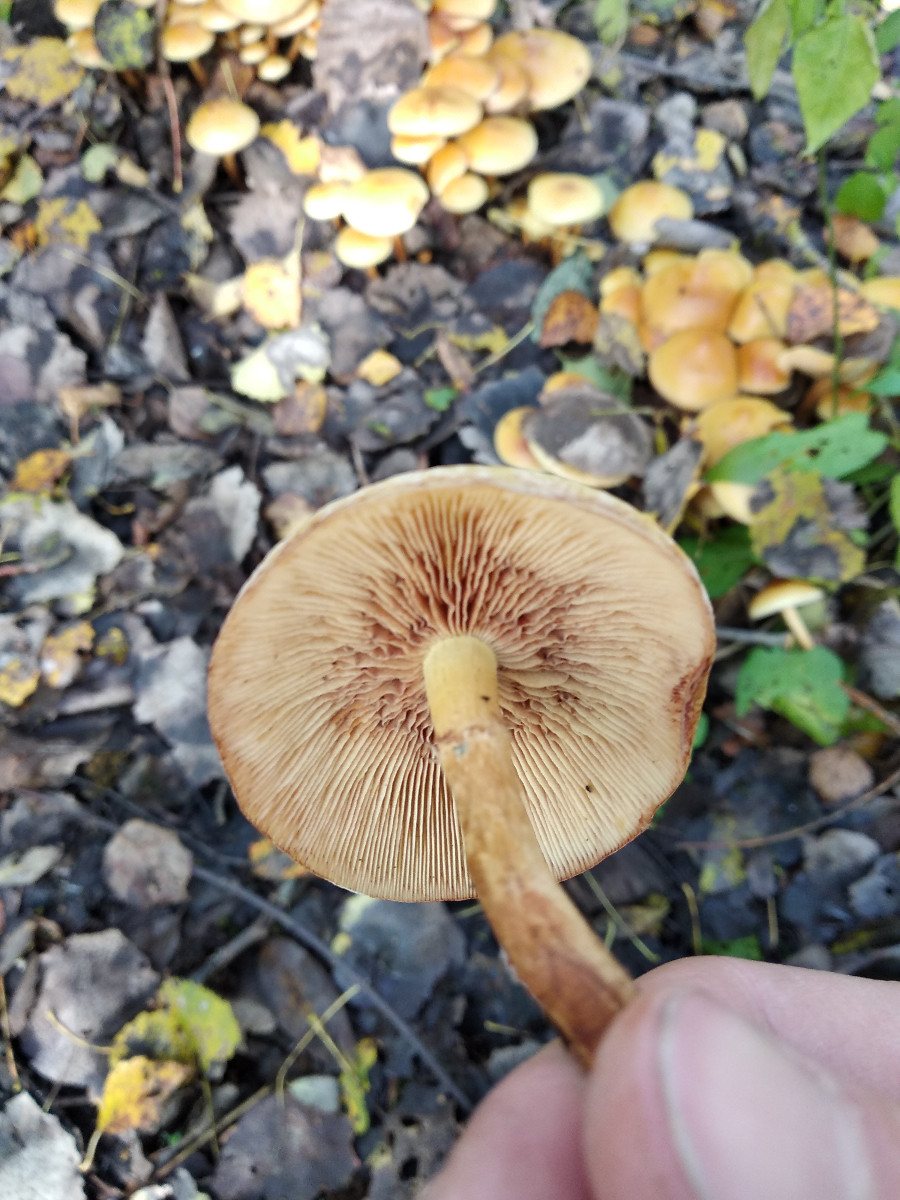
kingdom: Fungi
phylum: Basidiomycota
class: Agaricomycetes
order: Agaricales
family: Strophariaceae
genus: Hypholoma
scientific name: Hypholoma fasciculare
